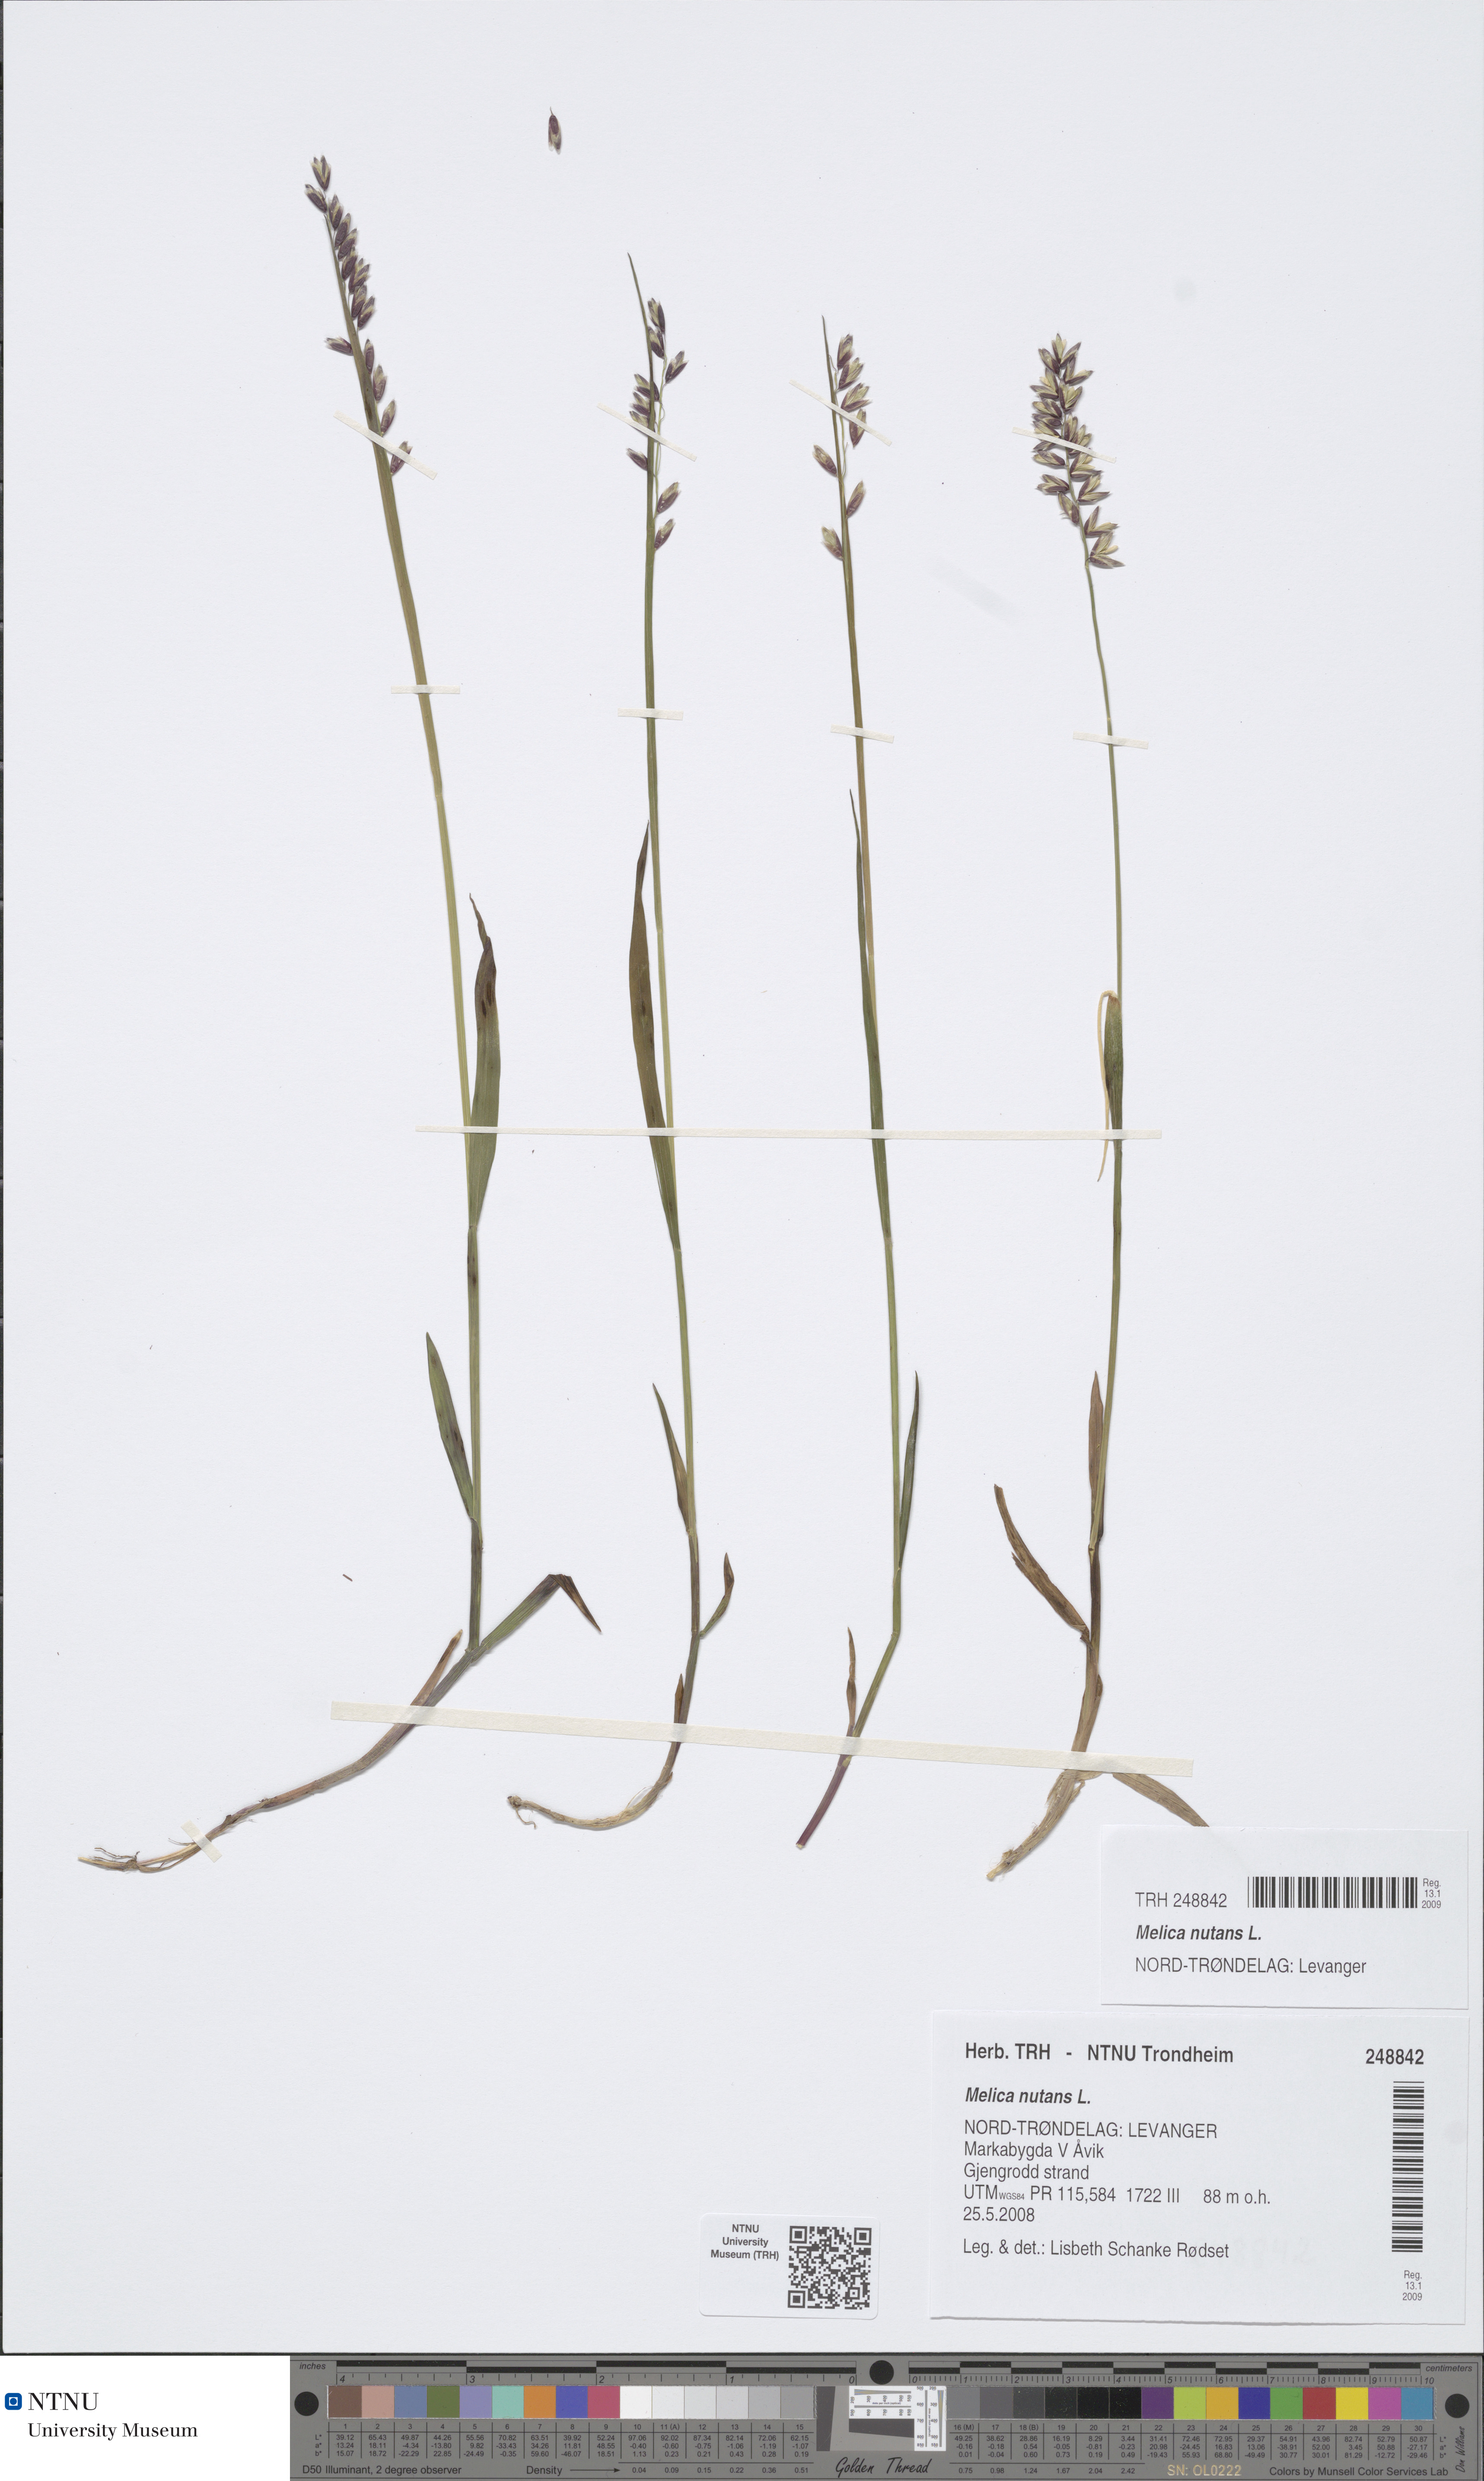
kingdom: Plantae
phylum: Tracheophyta
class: Liliopsida
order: Poales
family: Poaceae
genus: Melica
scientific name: Melica nutans
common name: Mountain melick
